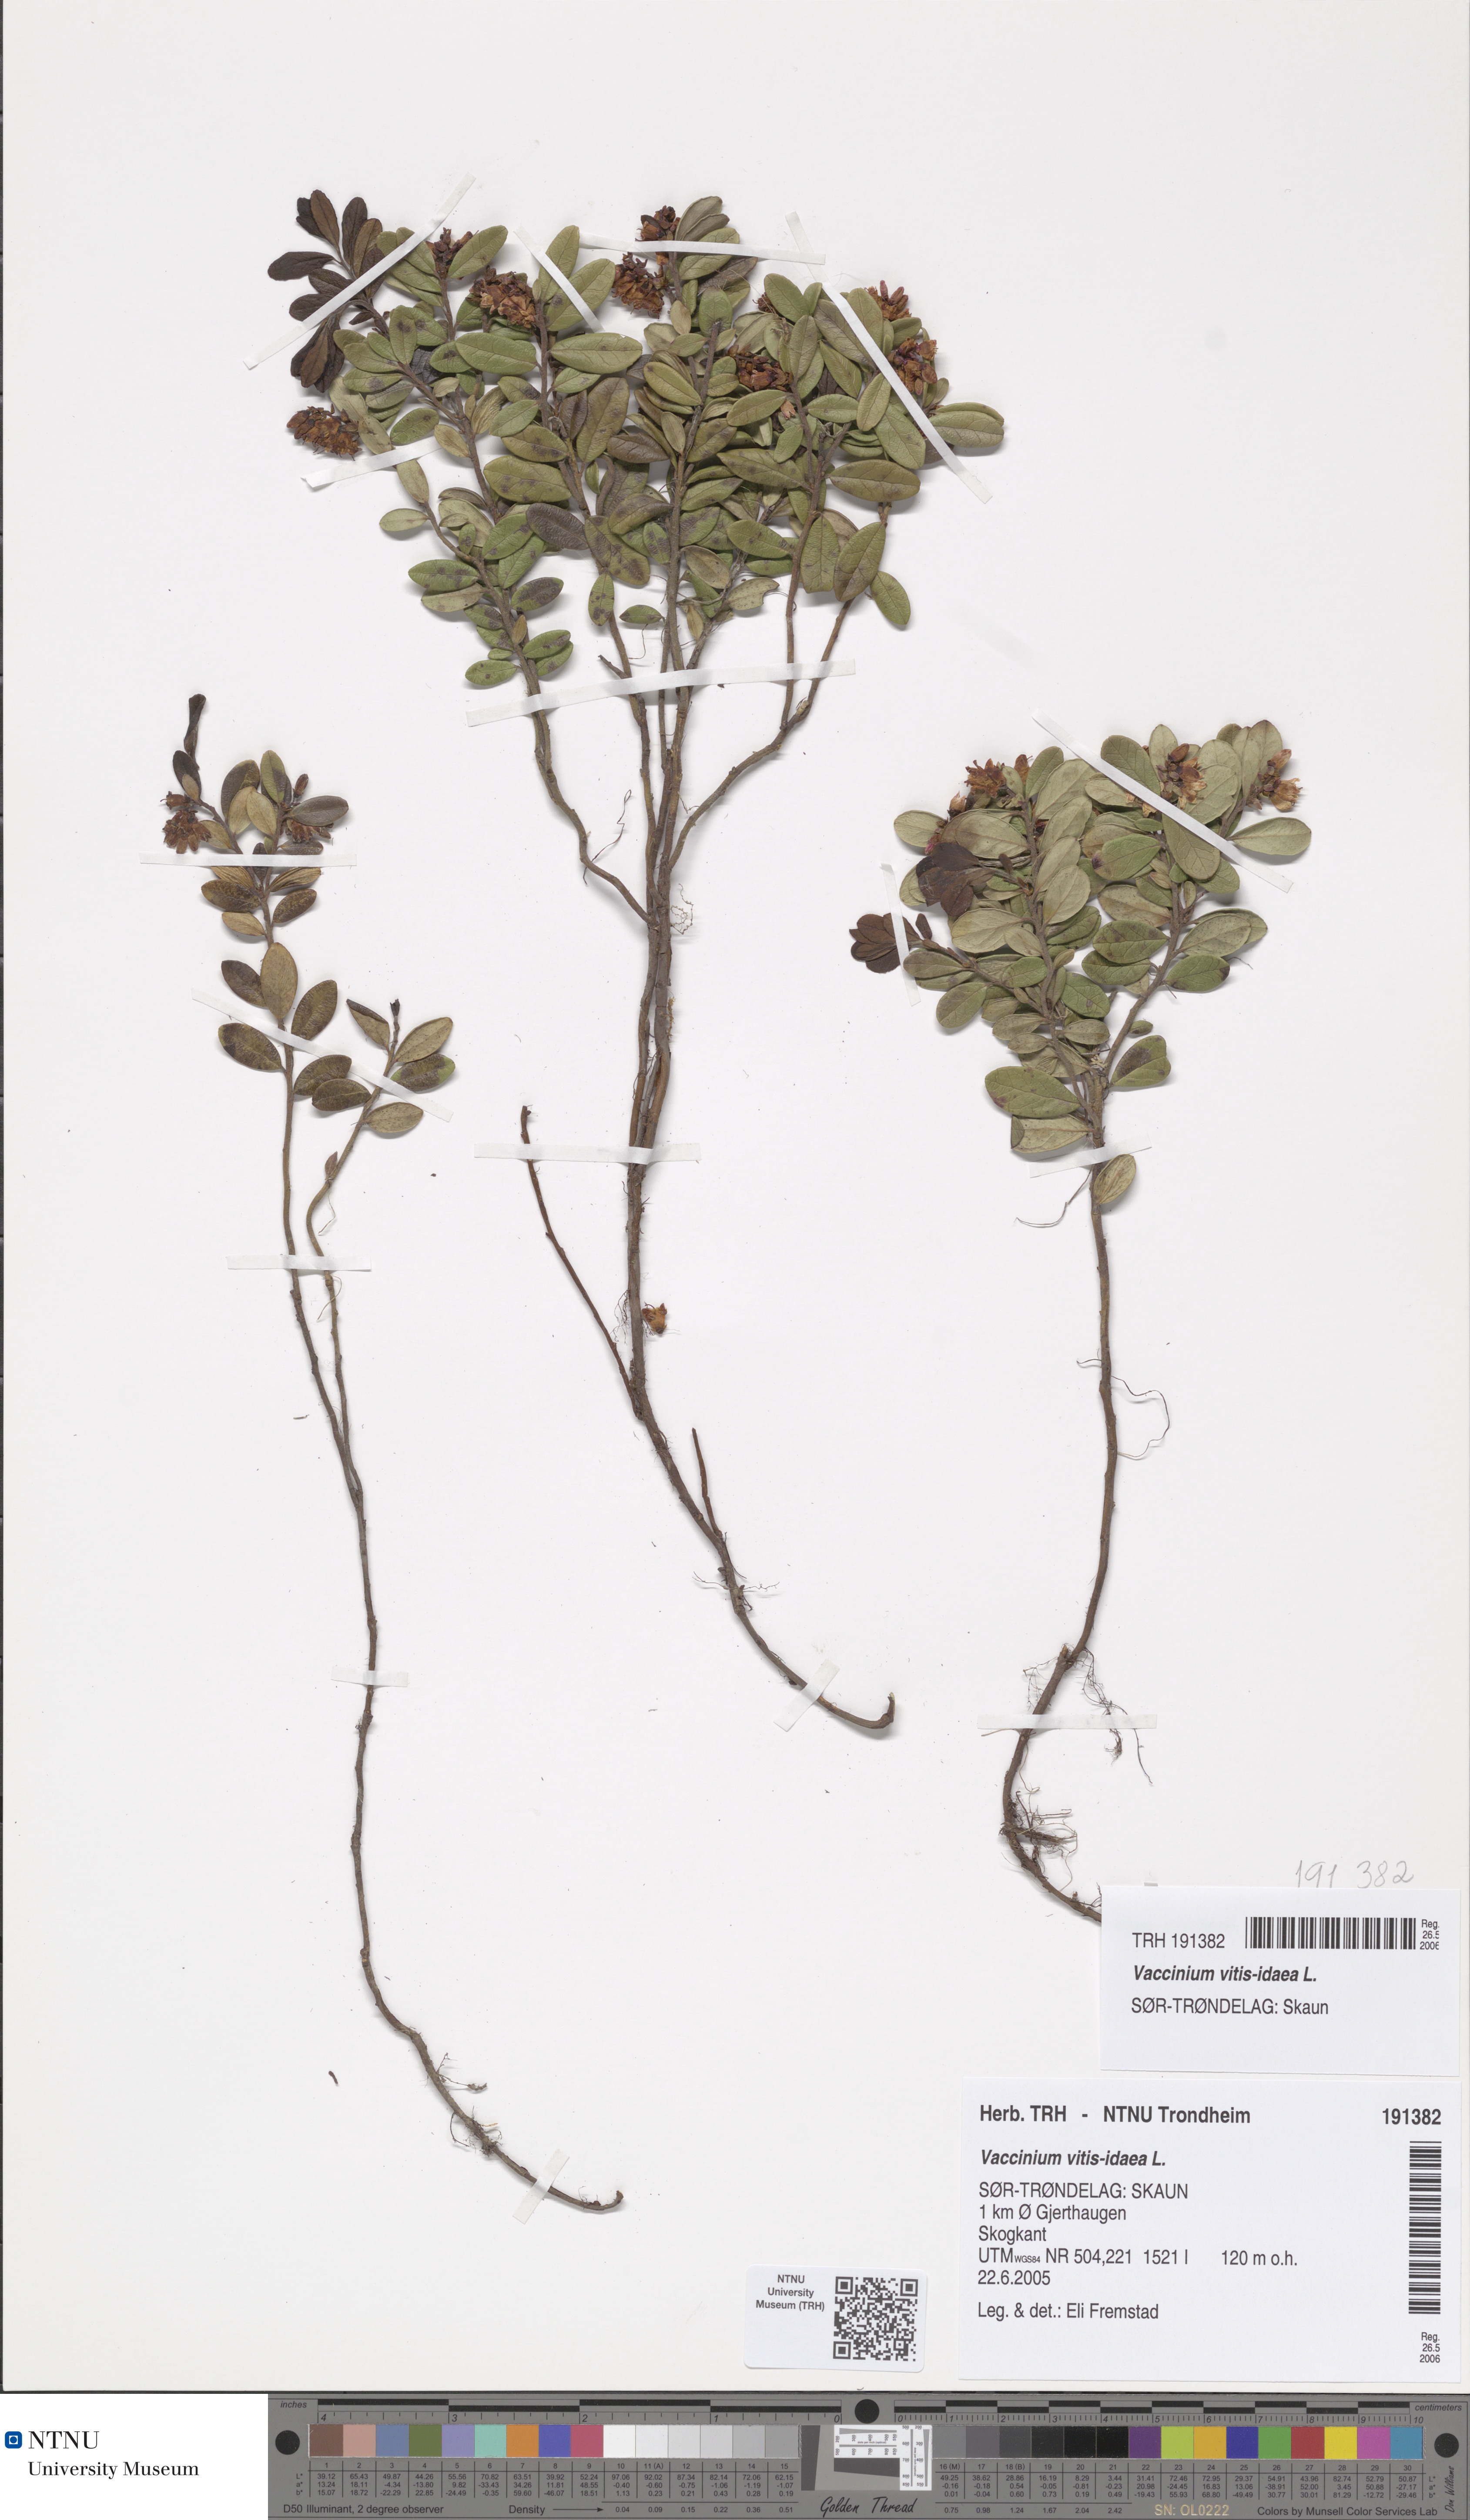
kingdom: Plantae
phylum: Tracheophyta
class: Magnoliopsida
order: Ericales
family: Ericaceae
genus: Vaccinium
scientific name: Vaccinium vitis-idaea
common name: Cowberry
